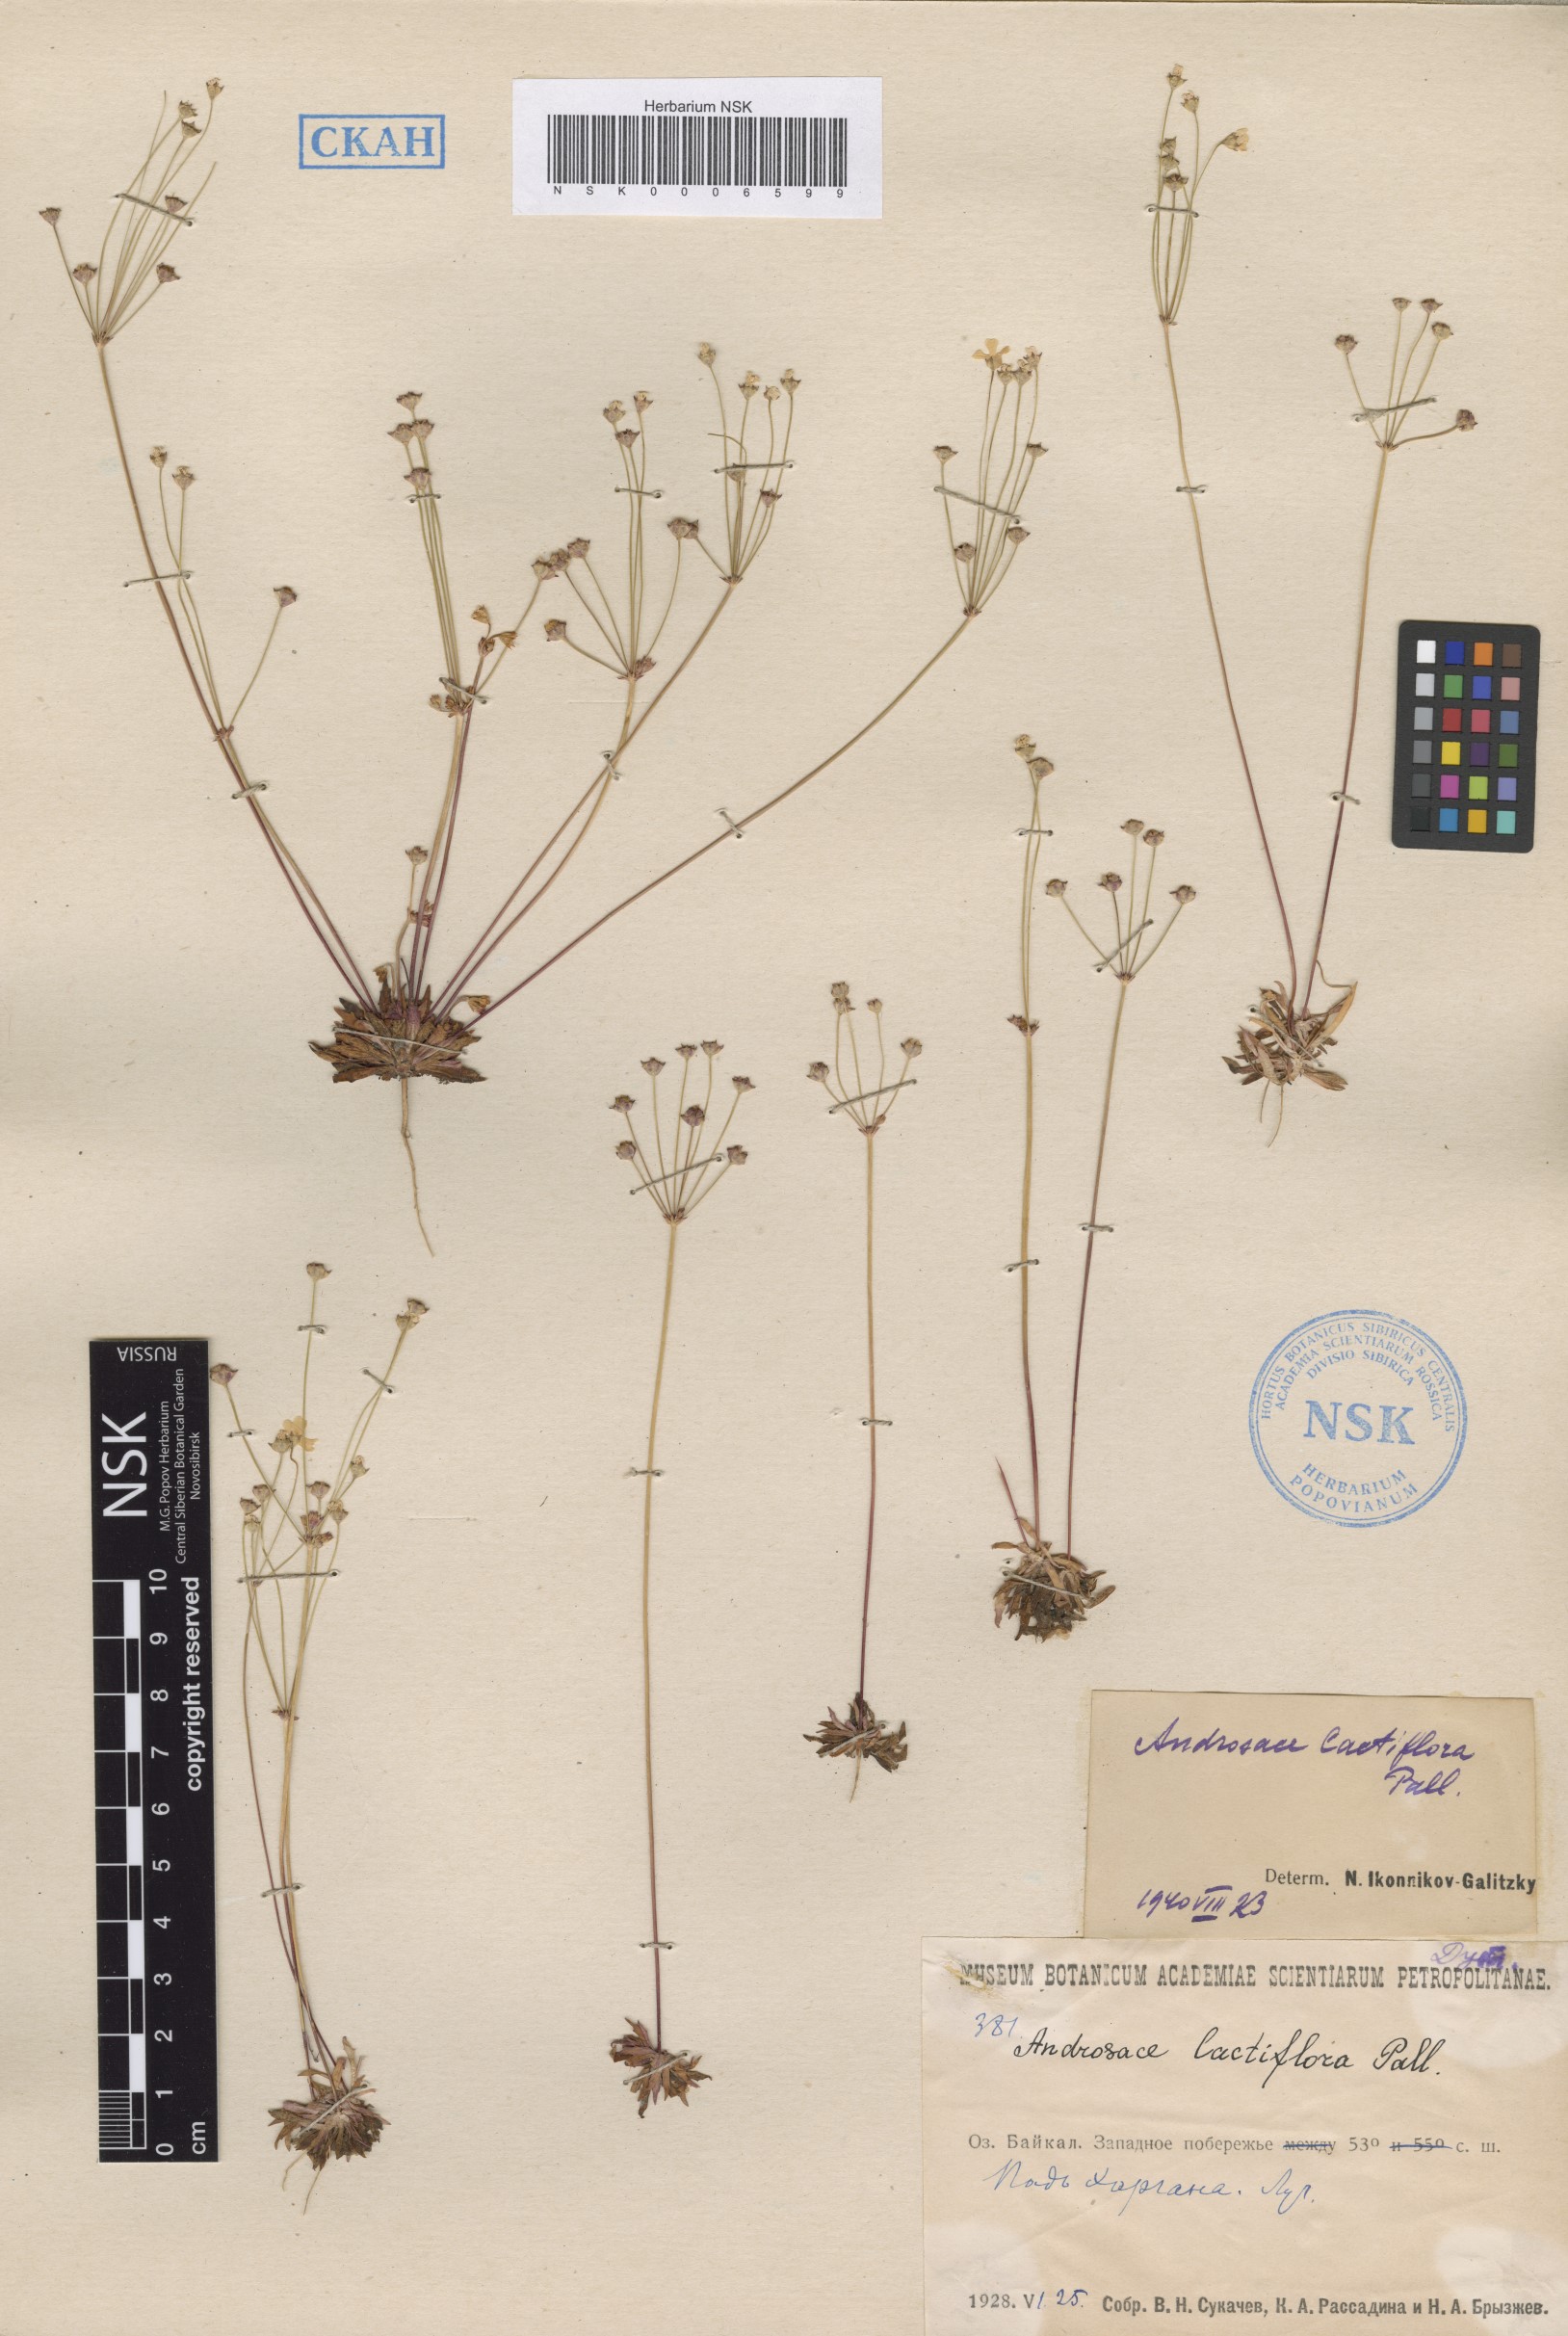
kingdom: Plantae
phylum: Tracheophyta
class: Magnoliopsida
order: Ericales
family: Primulaceae
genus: Androsace
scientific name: Androsace lactiflora
